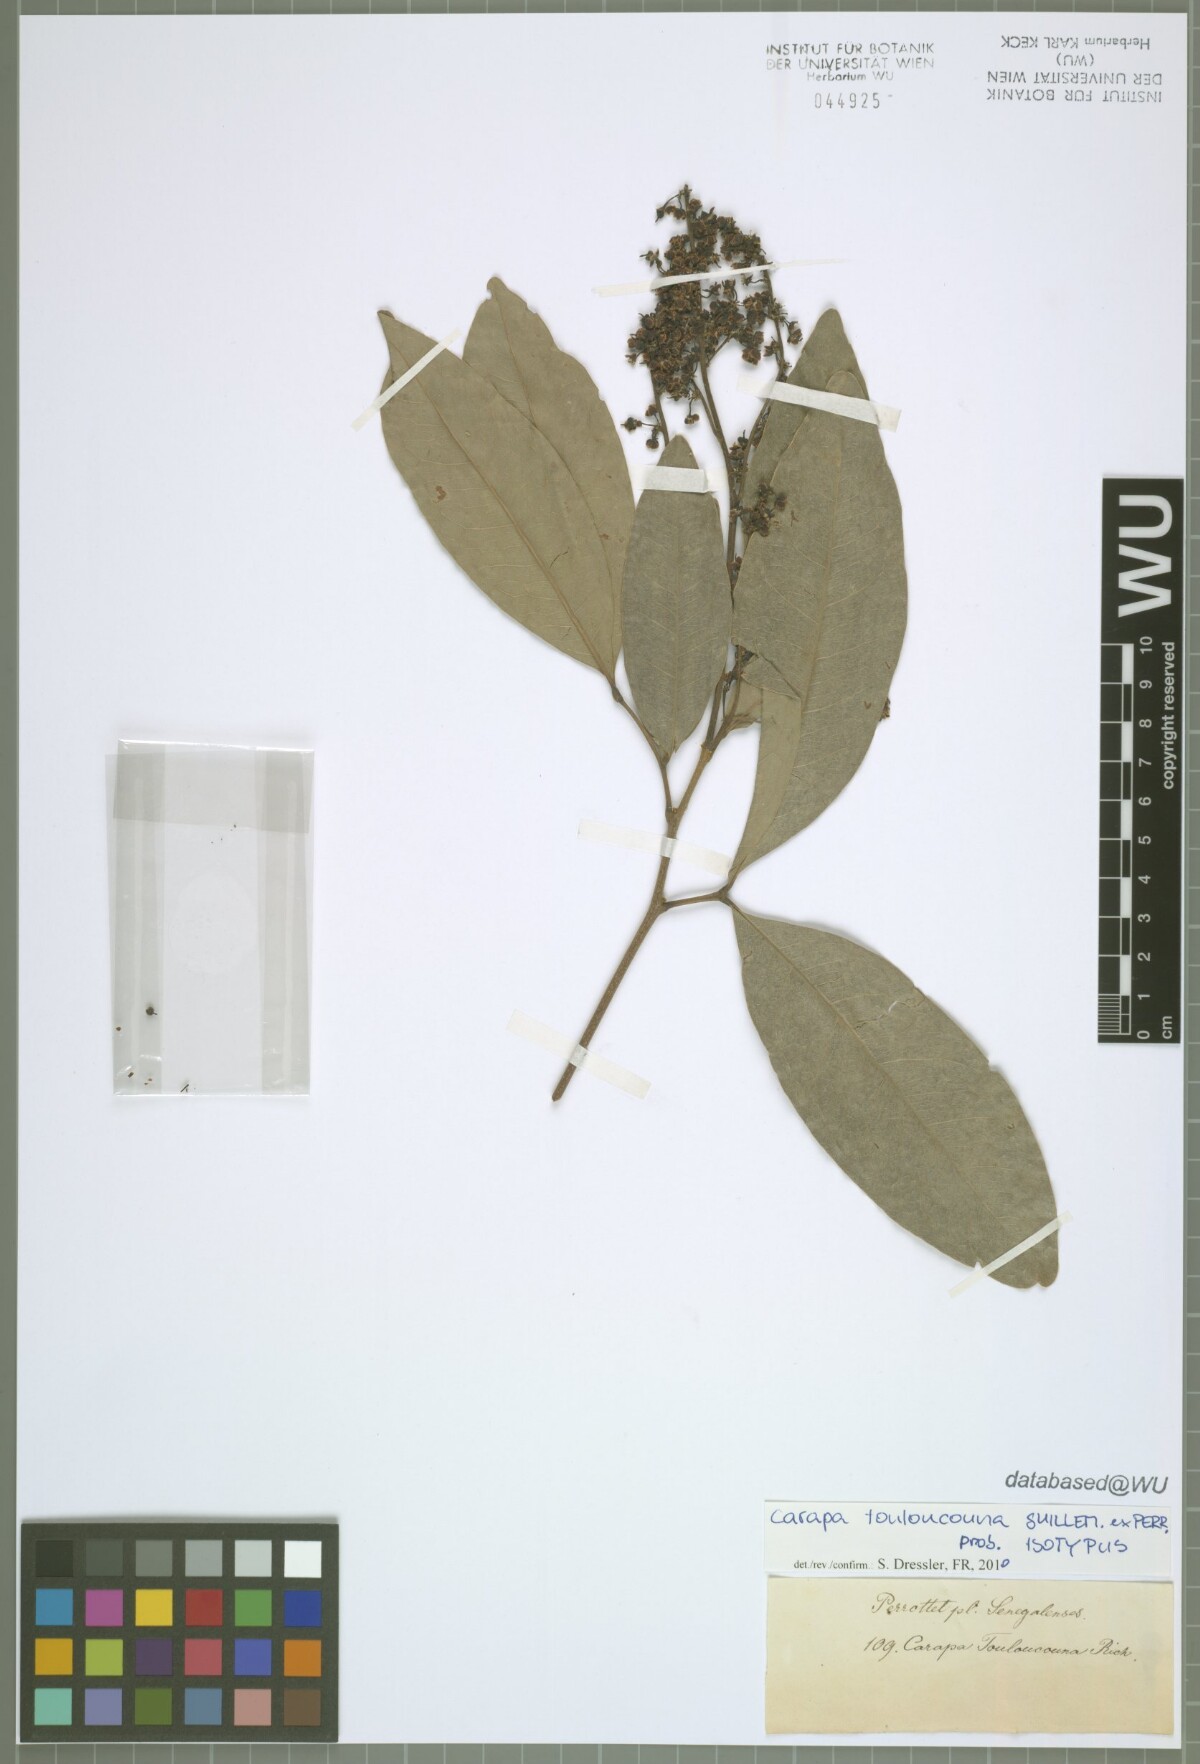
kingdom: Plantae
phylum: Tracheophyta
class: Magnoliopsida
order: Sapindales
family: Meliaceae
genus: Carapa
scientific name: Carapa procera
